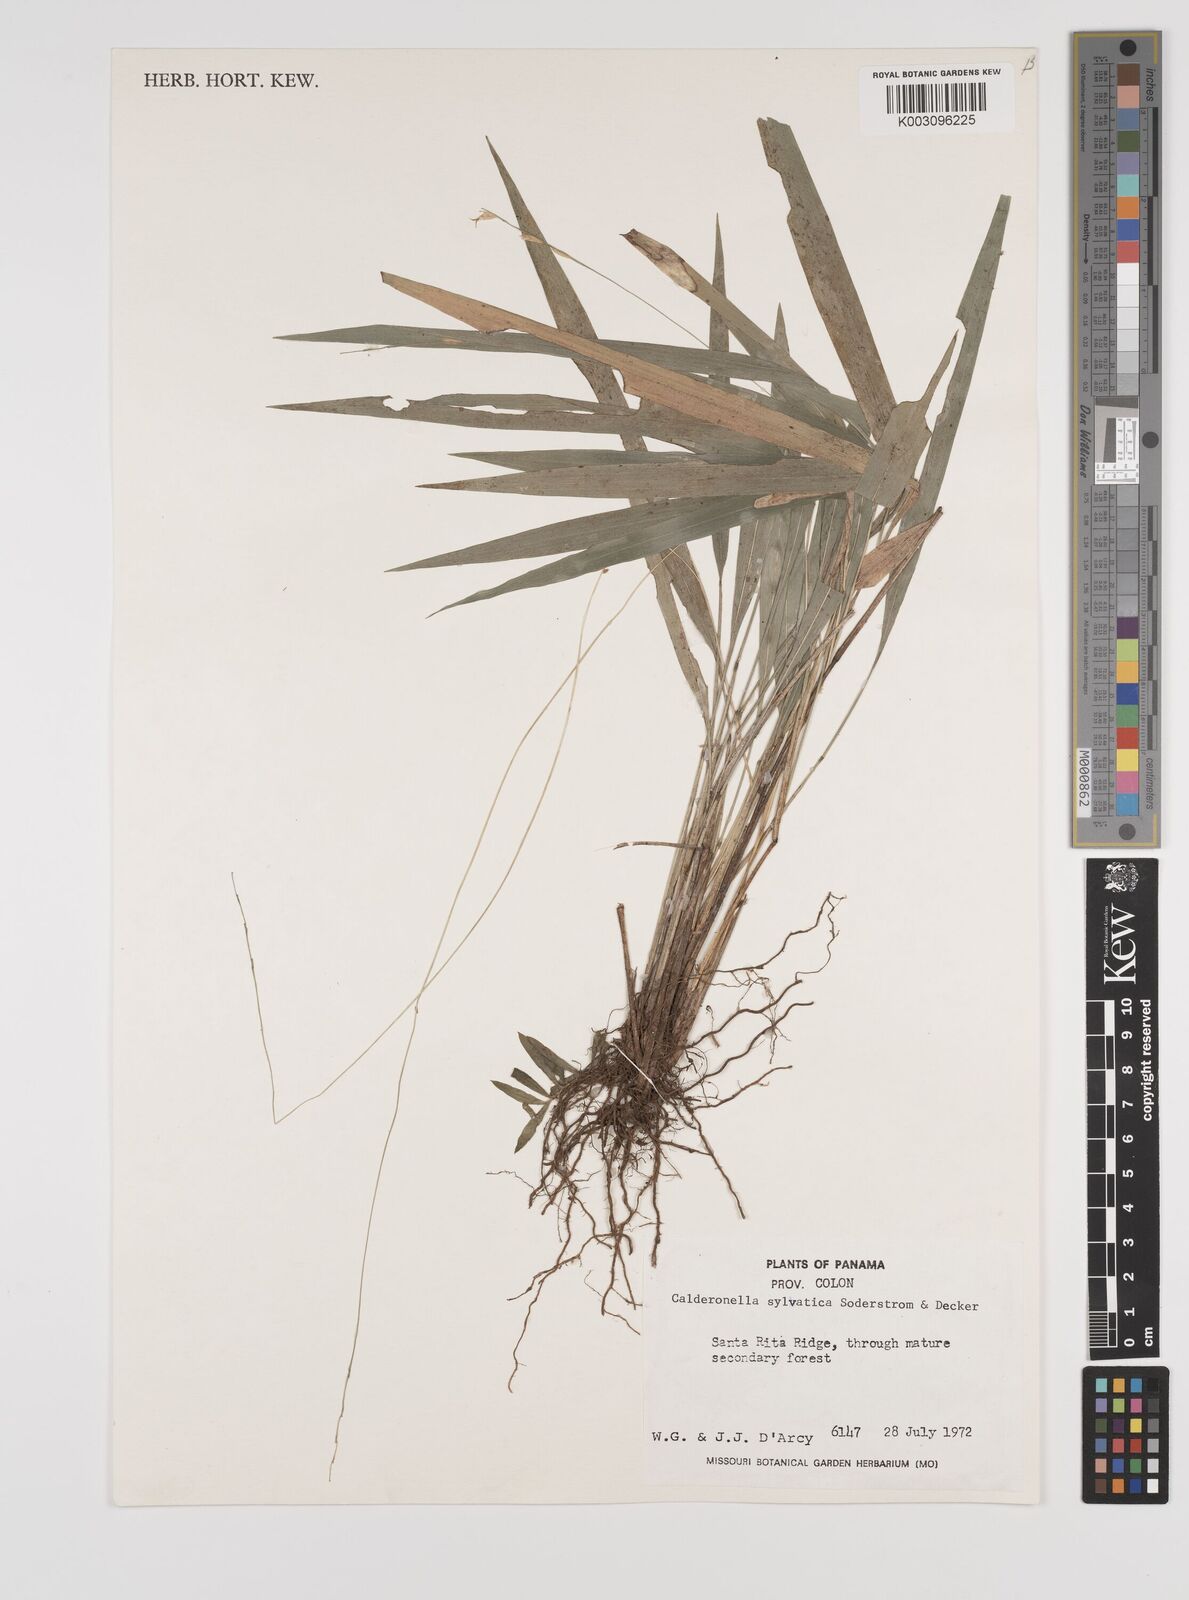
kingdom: Plantae
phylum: Tracheophyta
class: Liliopsida
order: Poales
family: Poaceae
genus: Zeugites
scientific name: Zeugites sylvaticus
